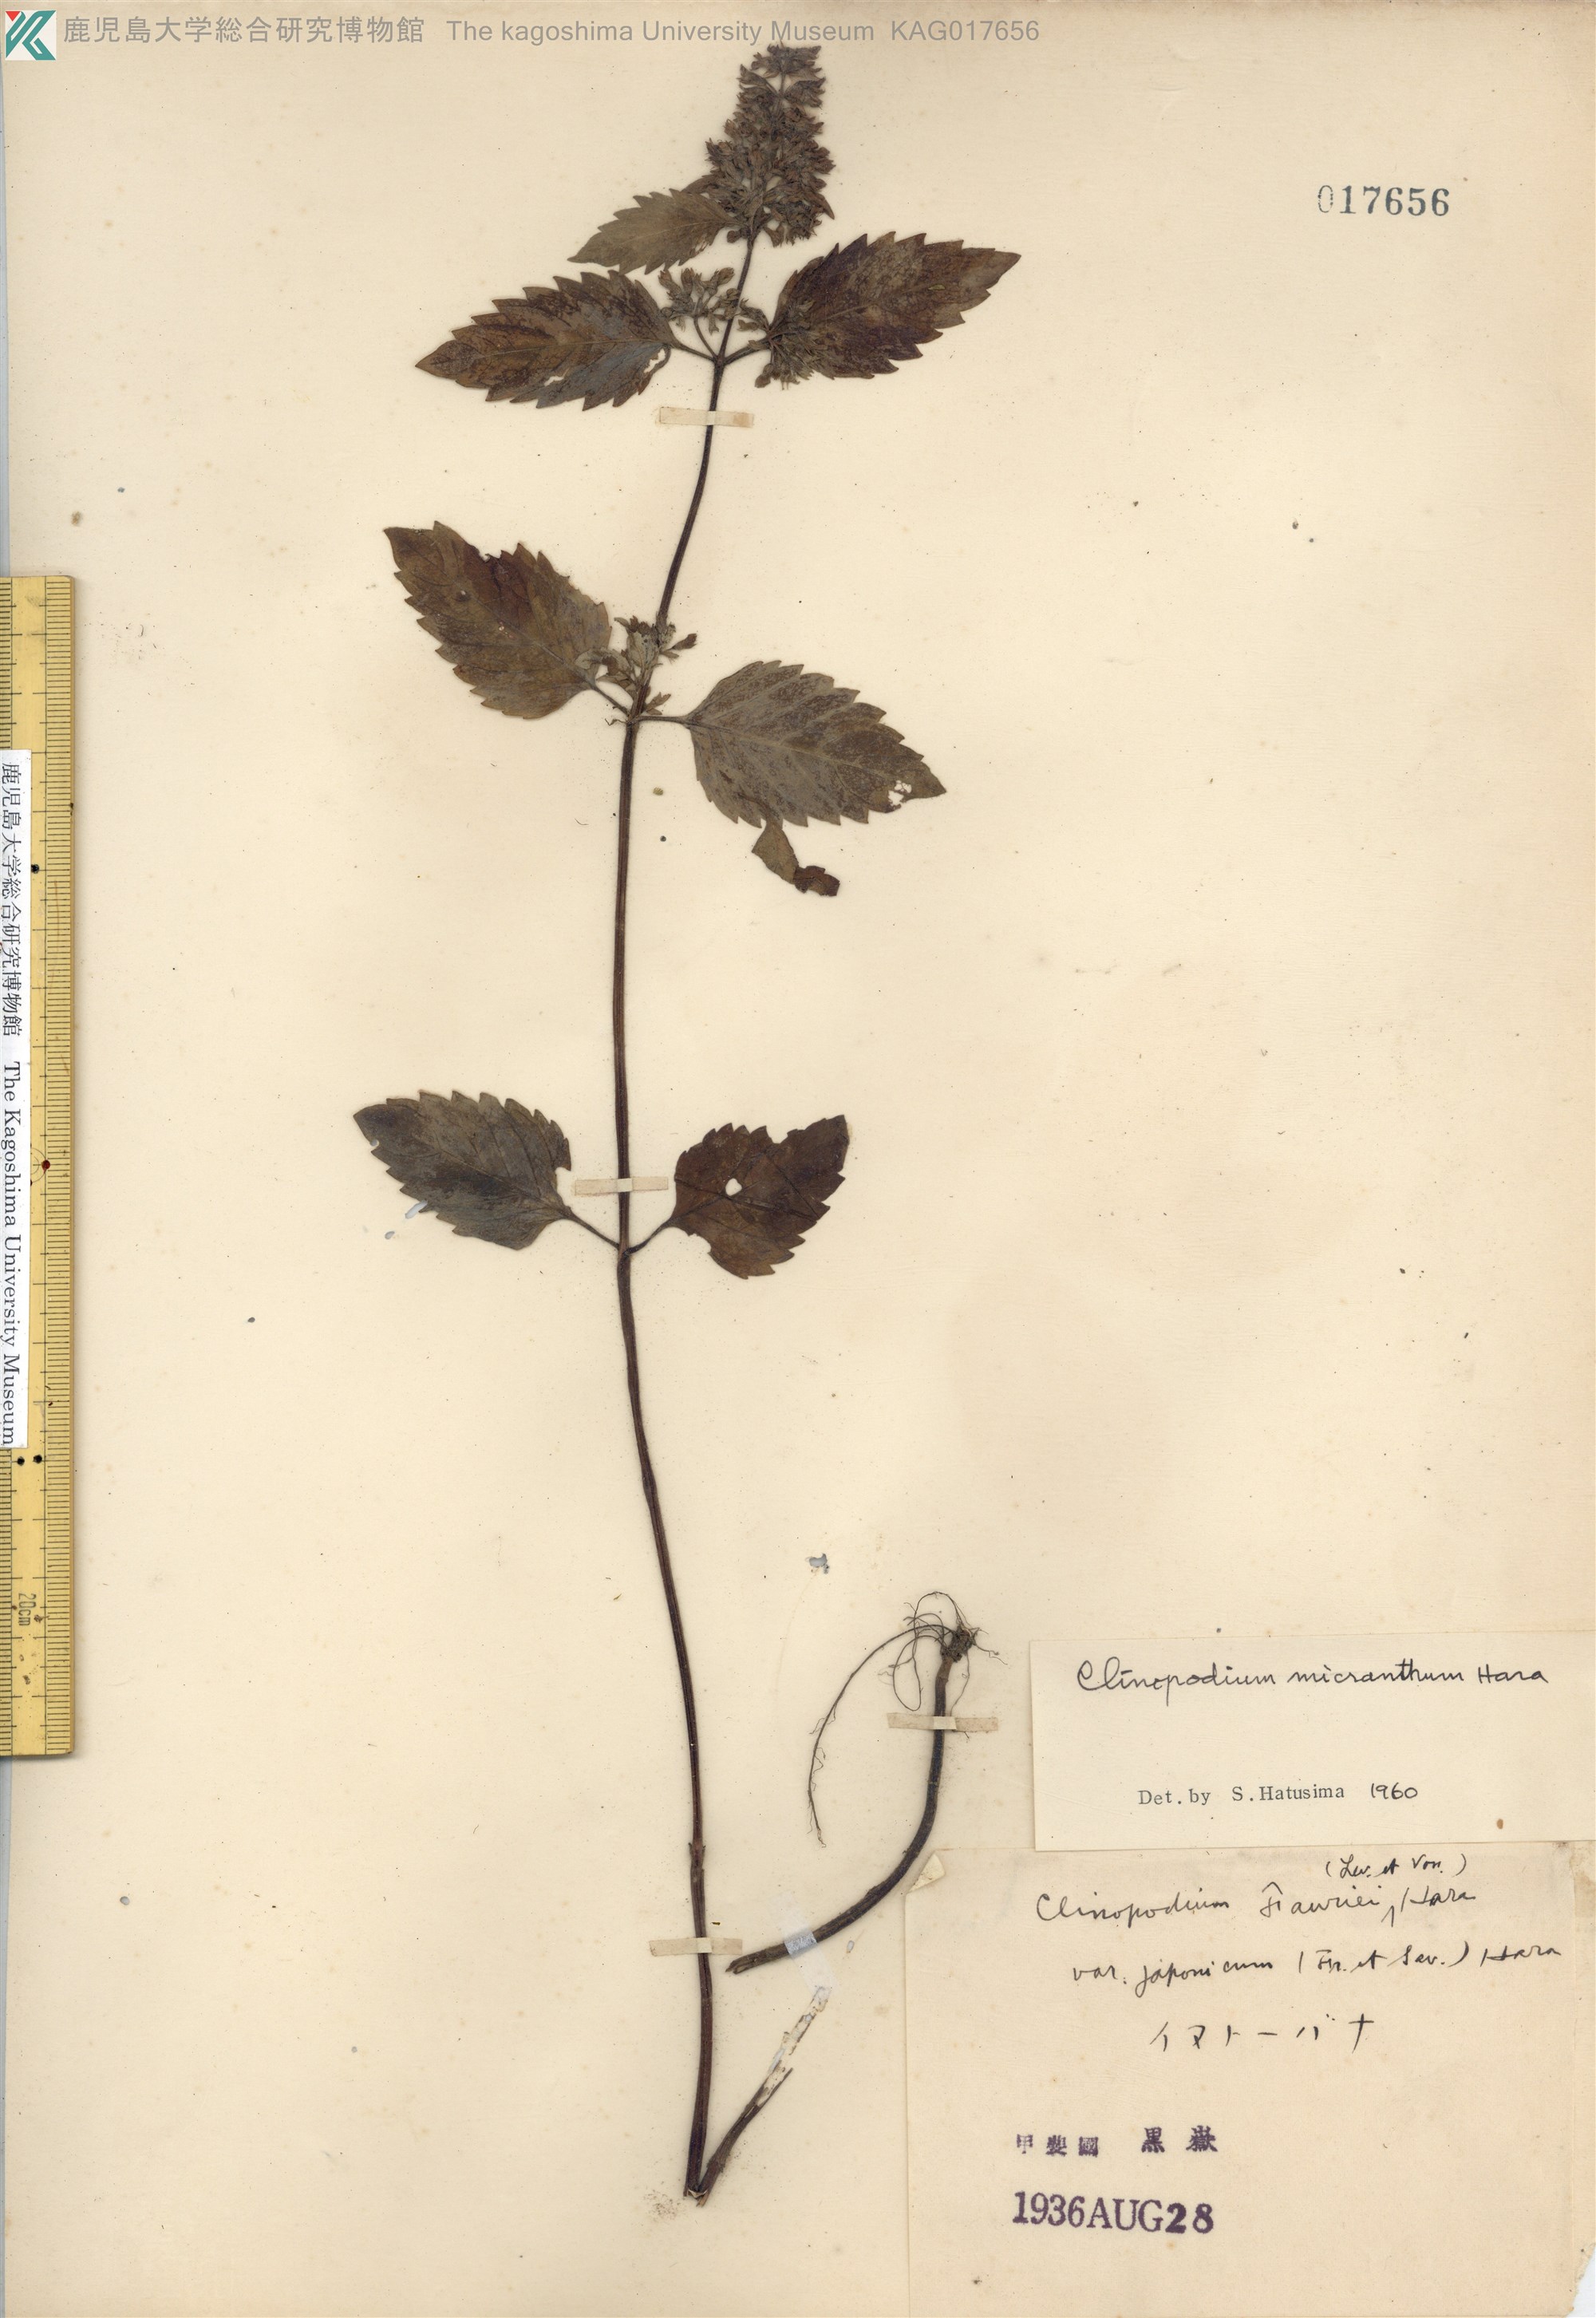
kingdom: Plantae
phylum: Tracheophyta
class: Magnoliopsida
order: Lamiales
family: Lamiaceae
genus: Clinopodium
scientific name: Clinopodium micranthum
